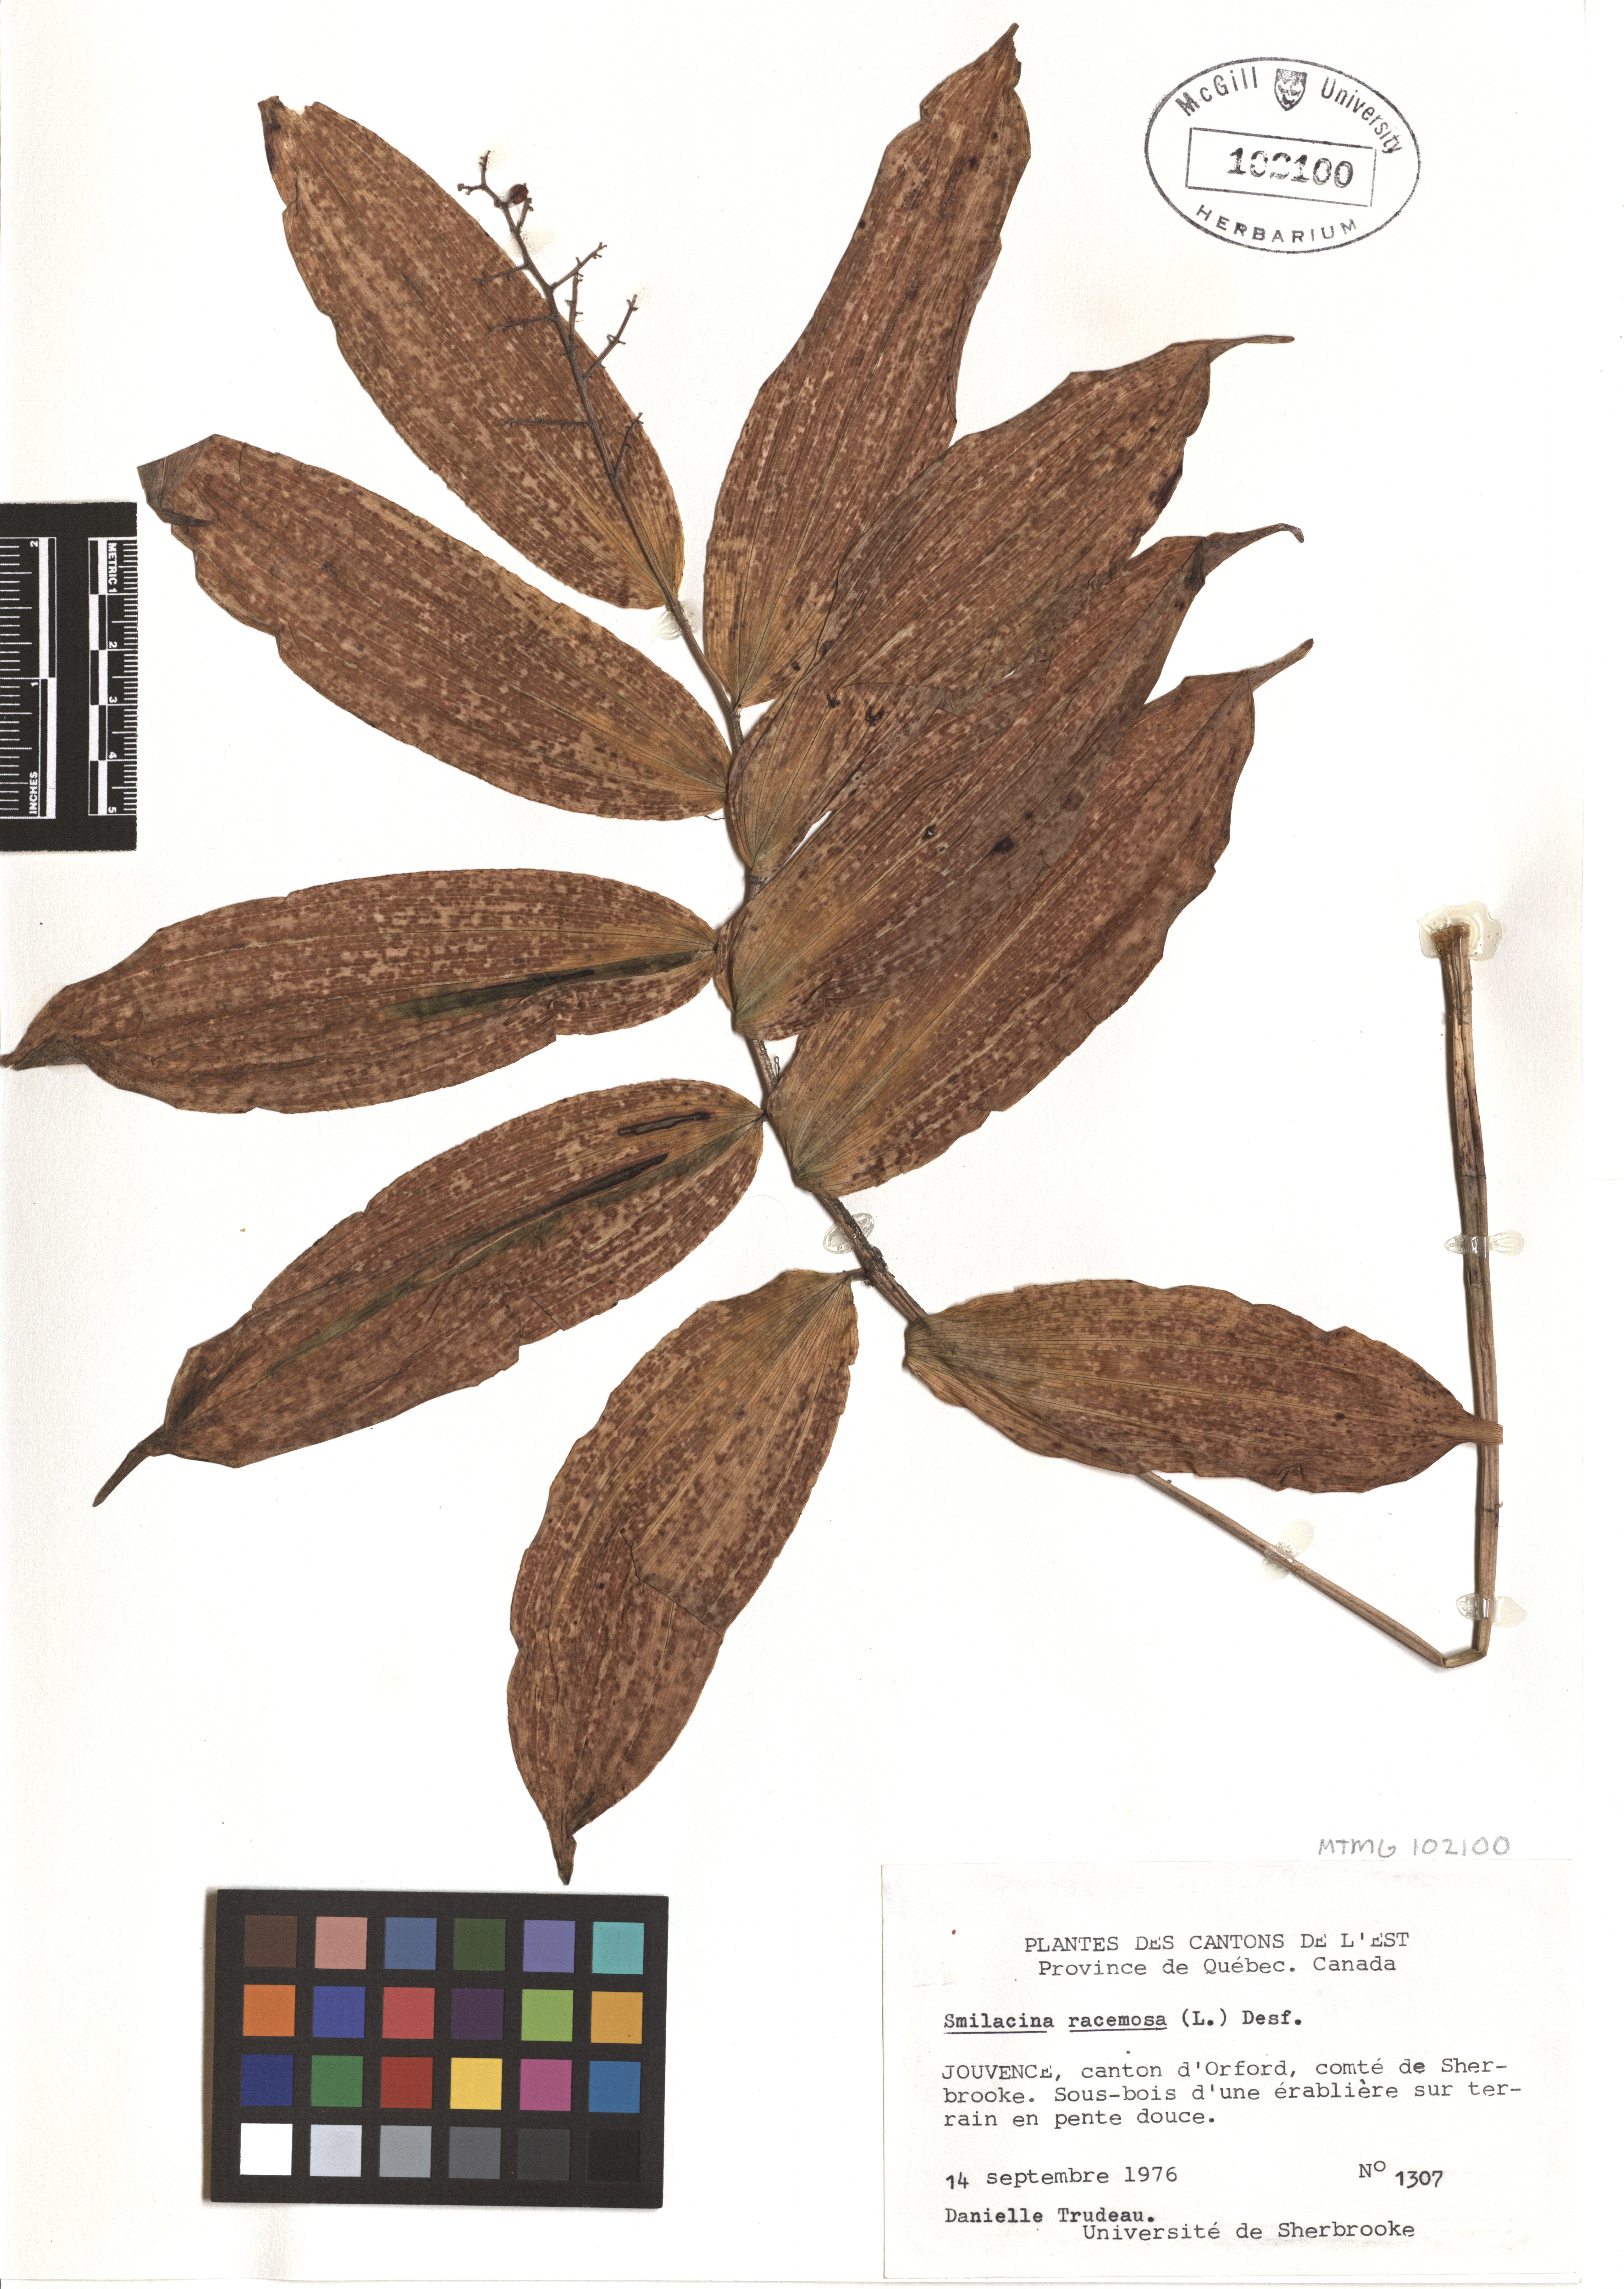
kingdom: Plantae
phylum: Tracheophyta
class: Liliopsida
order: Asparagales
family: Asparagaceae
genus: Maianthemum
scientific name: Maianthemum racemosum
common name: False spikenard
